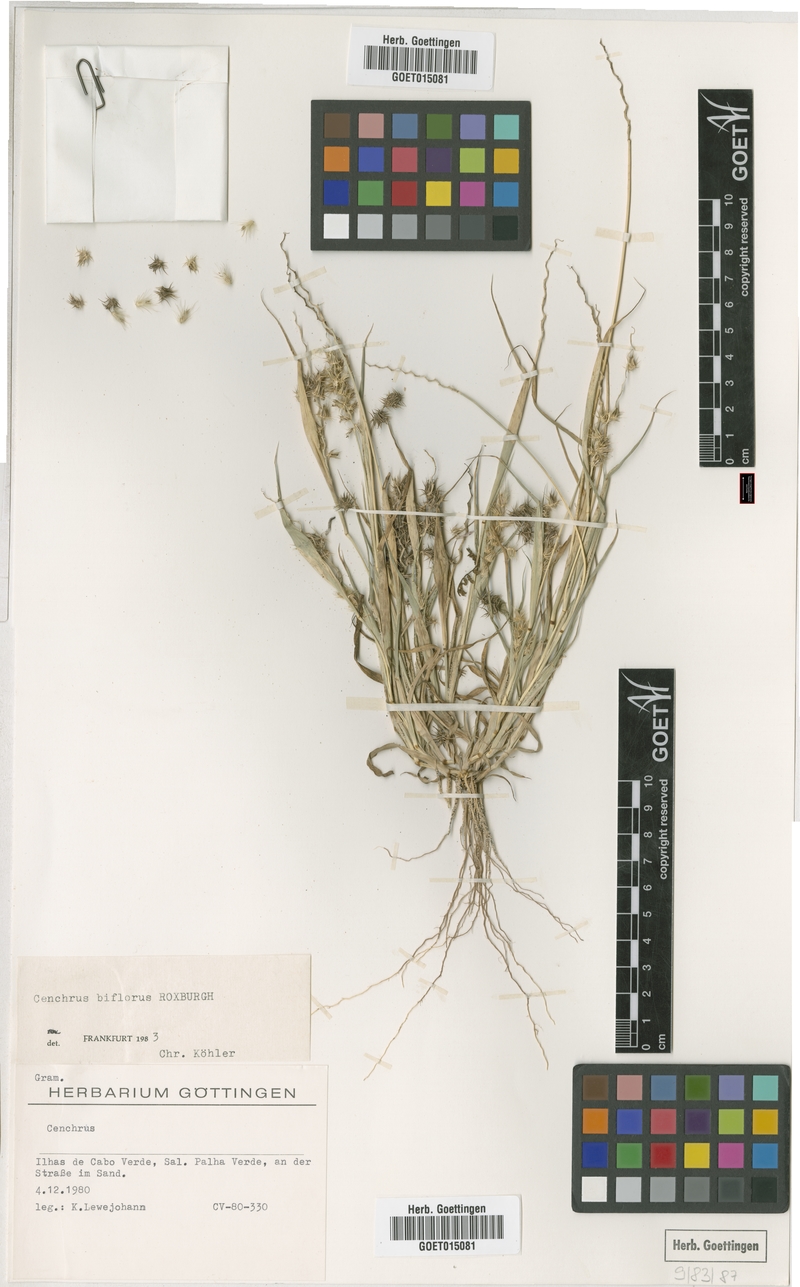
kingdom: Plantae
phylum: Tracheophyta
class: Liliopsida
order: Poales
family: Poaceae
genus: Cenchrus
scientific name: Cenchrus biflorus
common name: Indian sandbur
